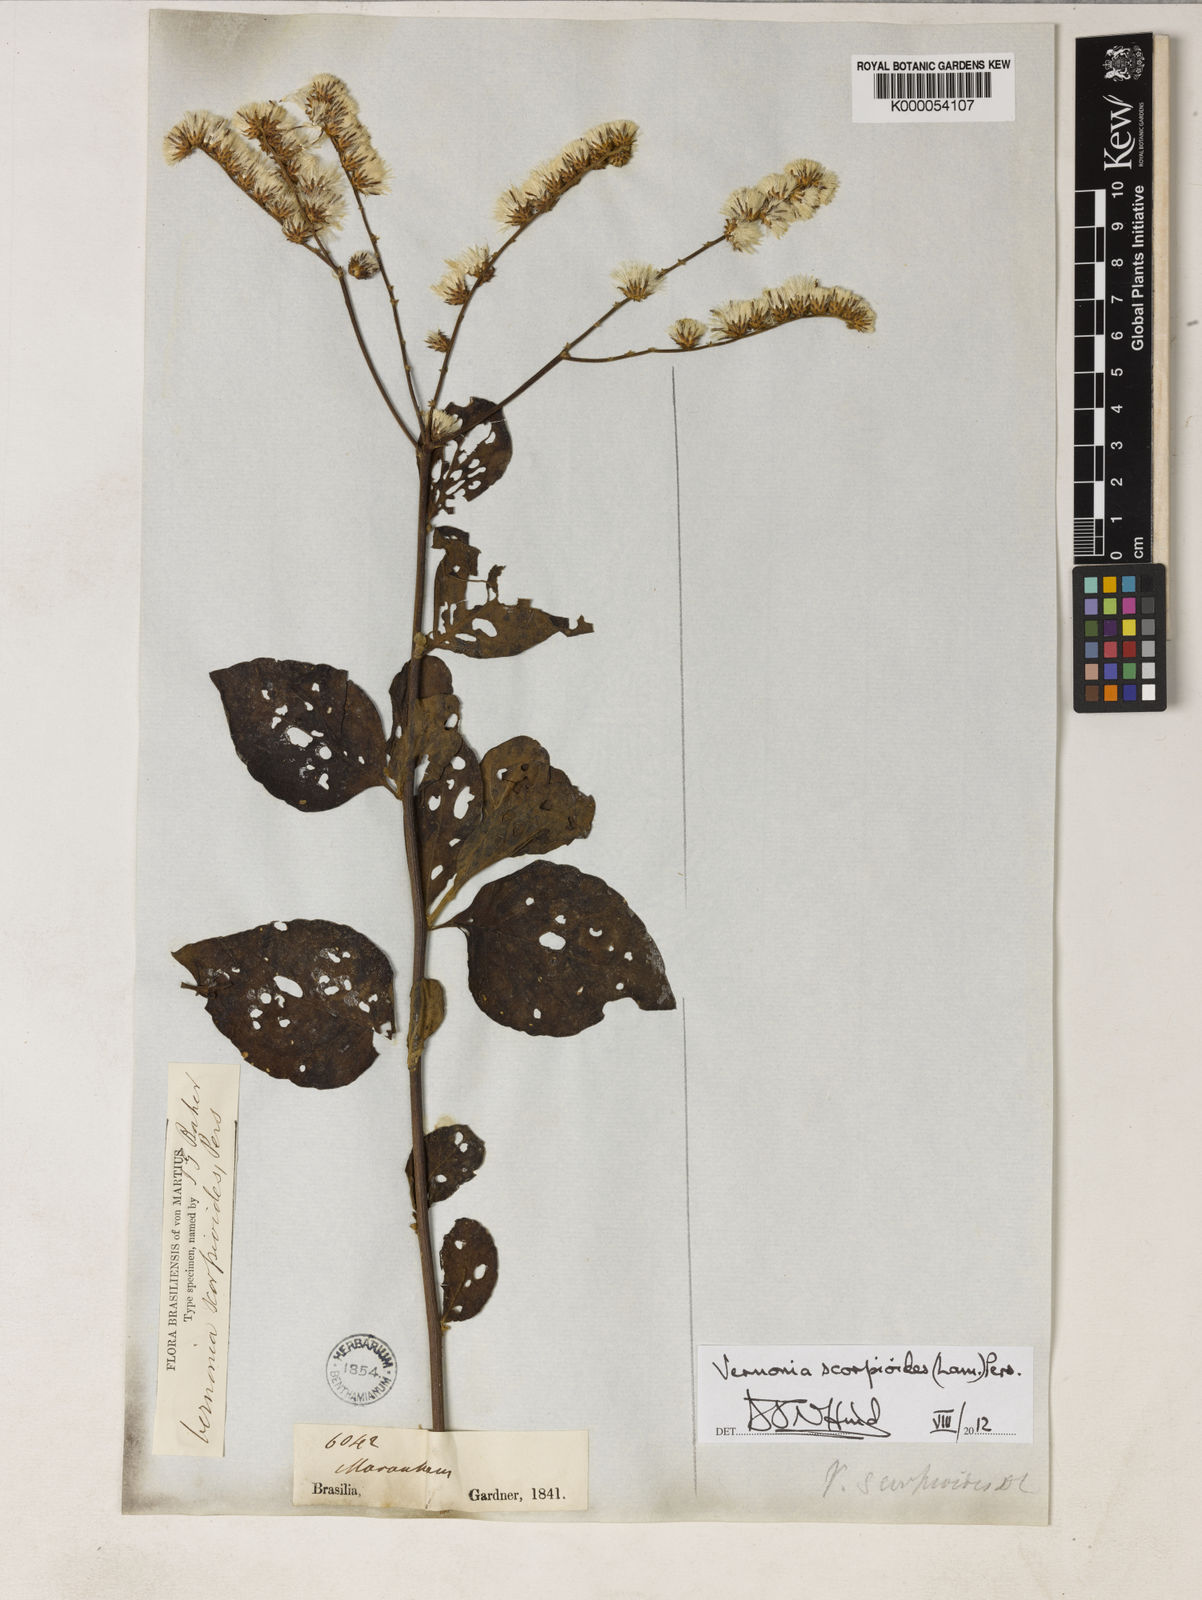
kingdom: Plantae
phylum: Tracheophyta
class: Magnoliopsida
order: Asterales
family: Asteraceae
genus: Cyrtocymura
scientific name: Cyrtocymura scorpioides
